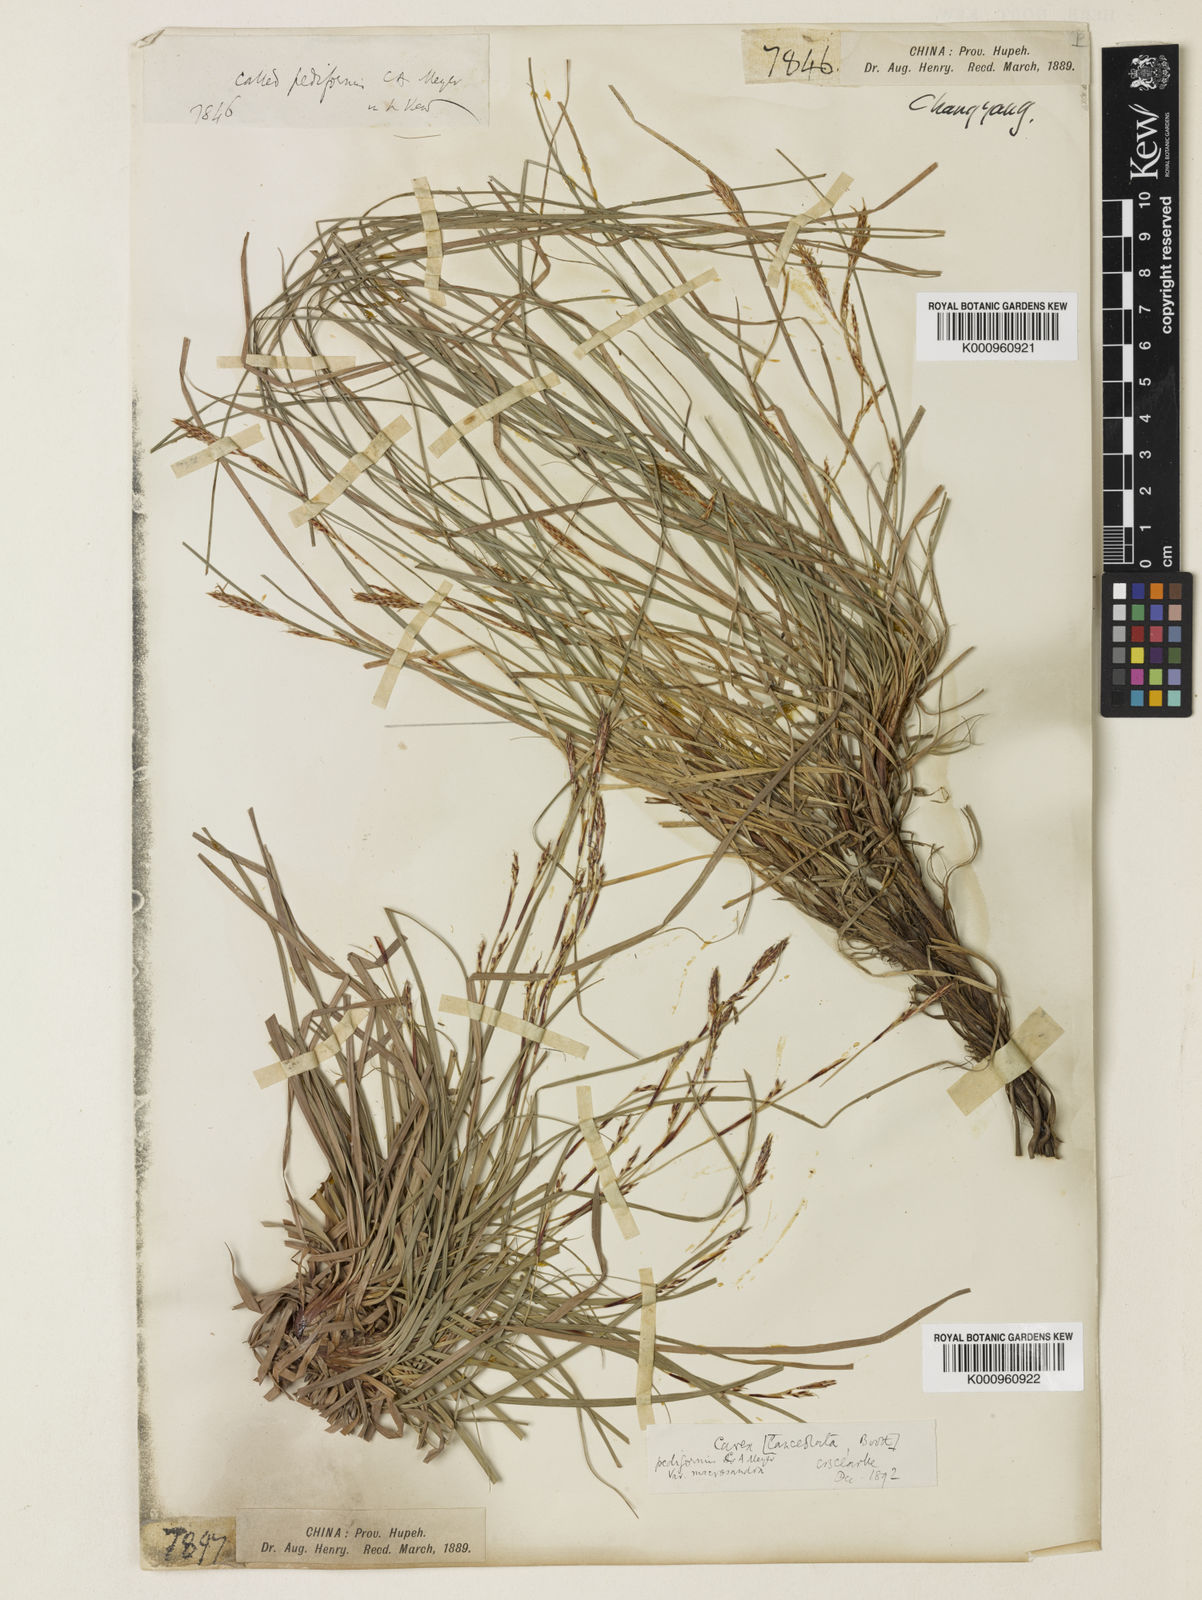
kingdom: Plantae
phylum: Tracheophyta
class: Liliopsida
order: Poales
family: Cyperaceae
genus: Carex
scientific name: Carex lanceolata
